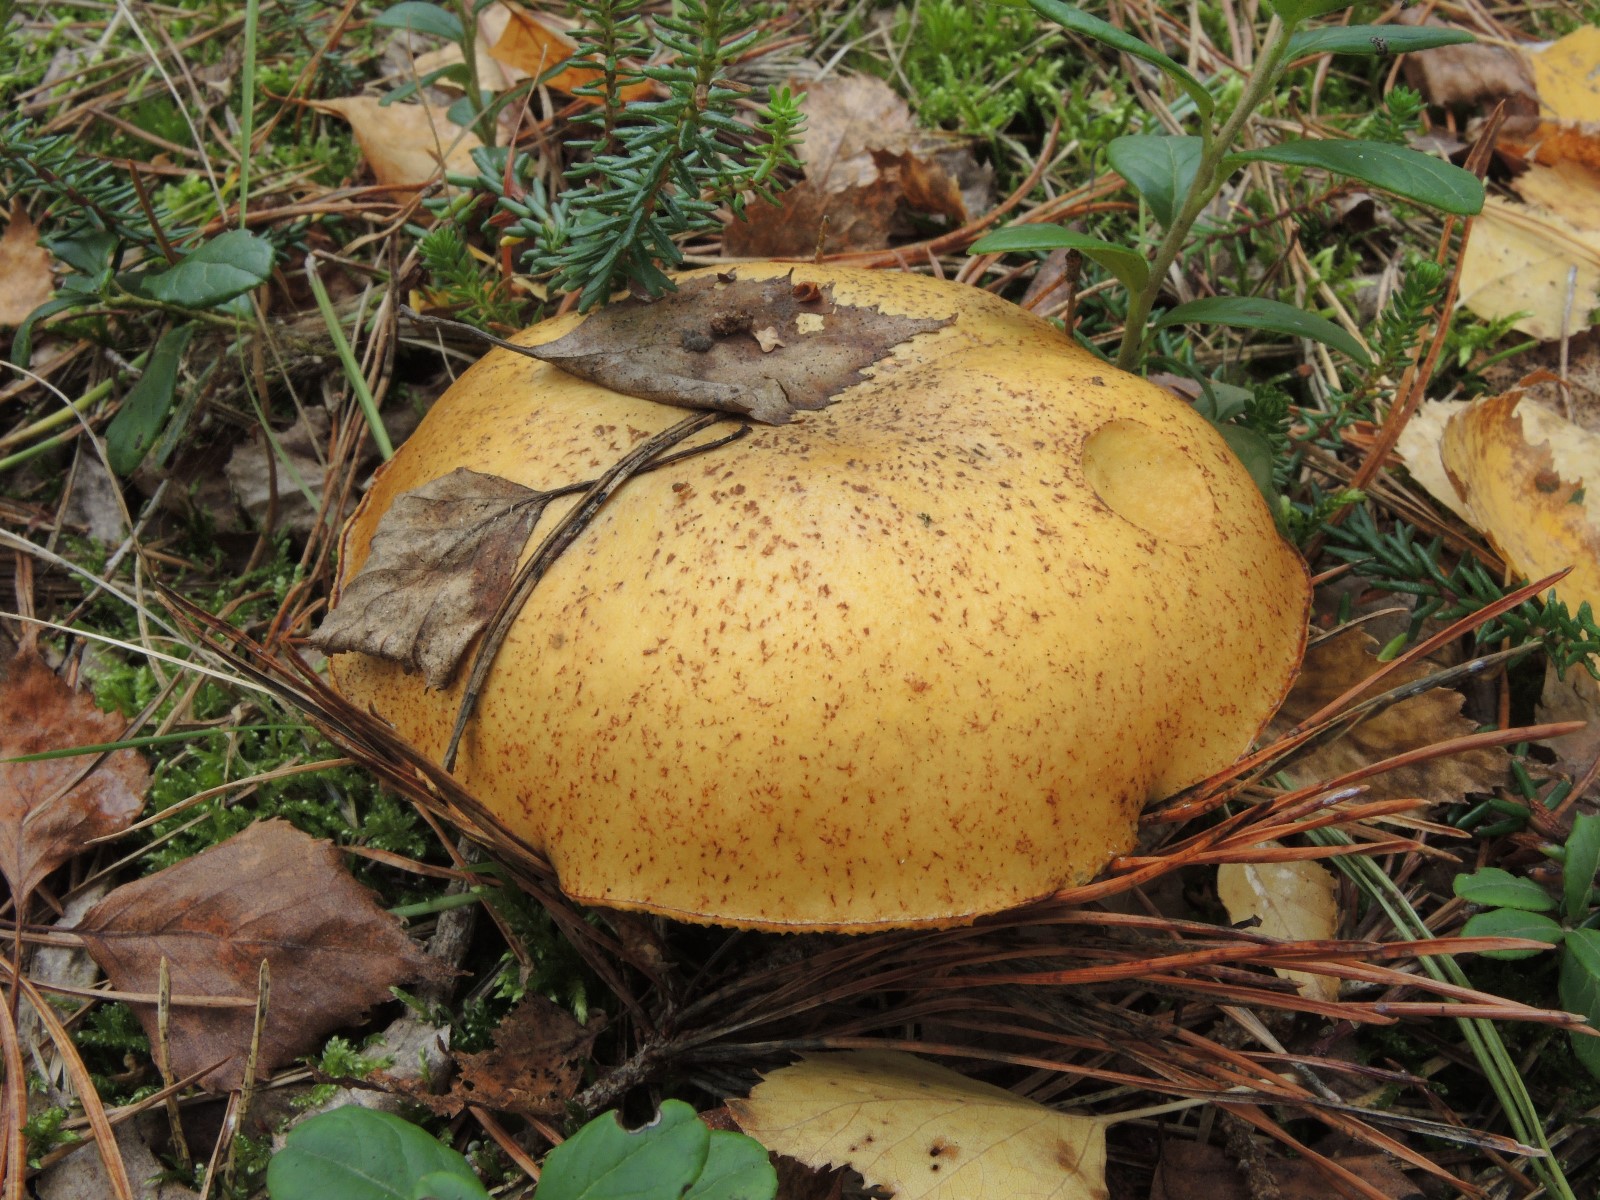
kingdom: Fungi
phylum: Basidiomycota
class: Agaricomycetes
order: Boletales
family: Suillaceae
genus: Suillus
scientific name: Suillus variegatus
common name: broget slimrørhat
